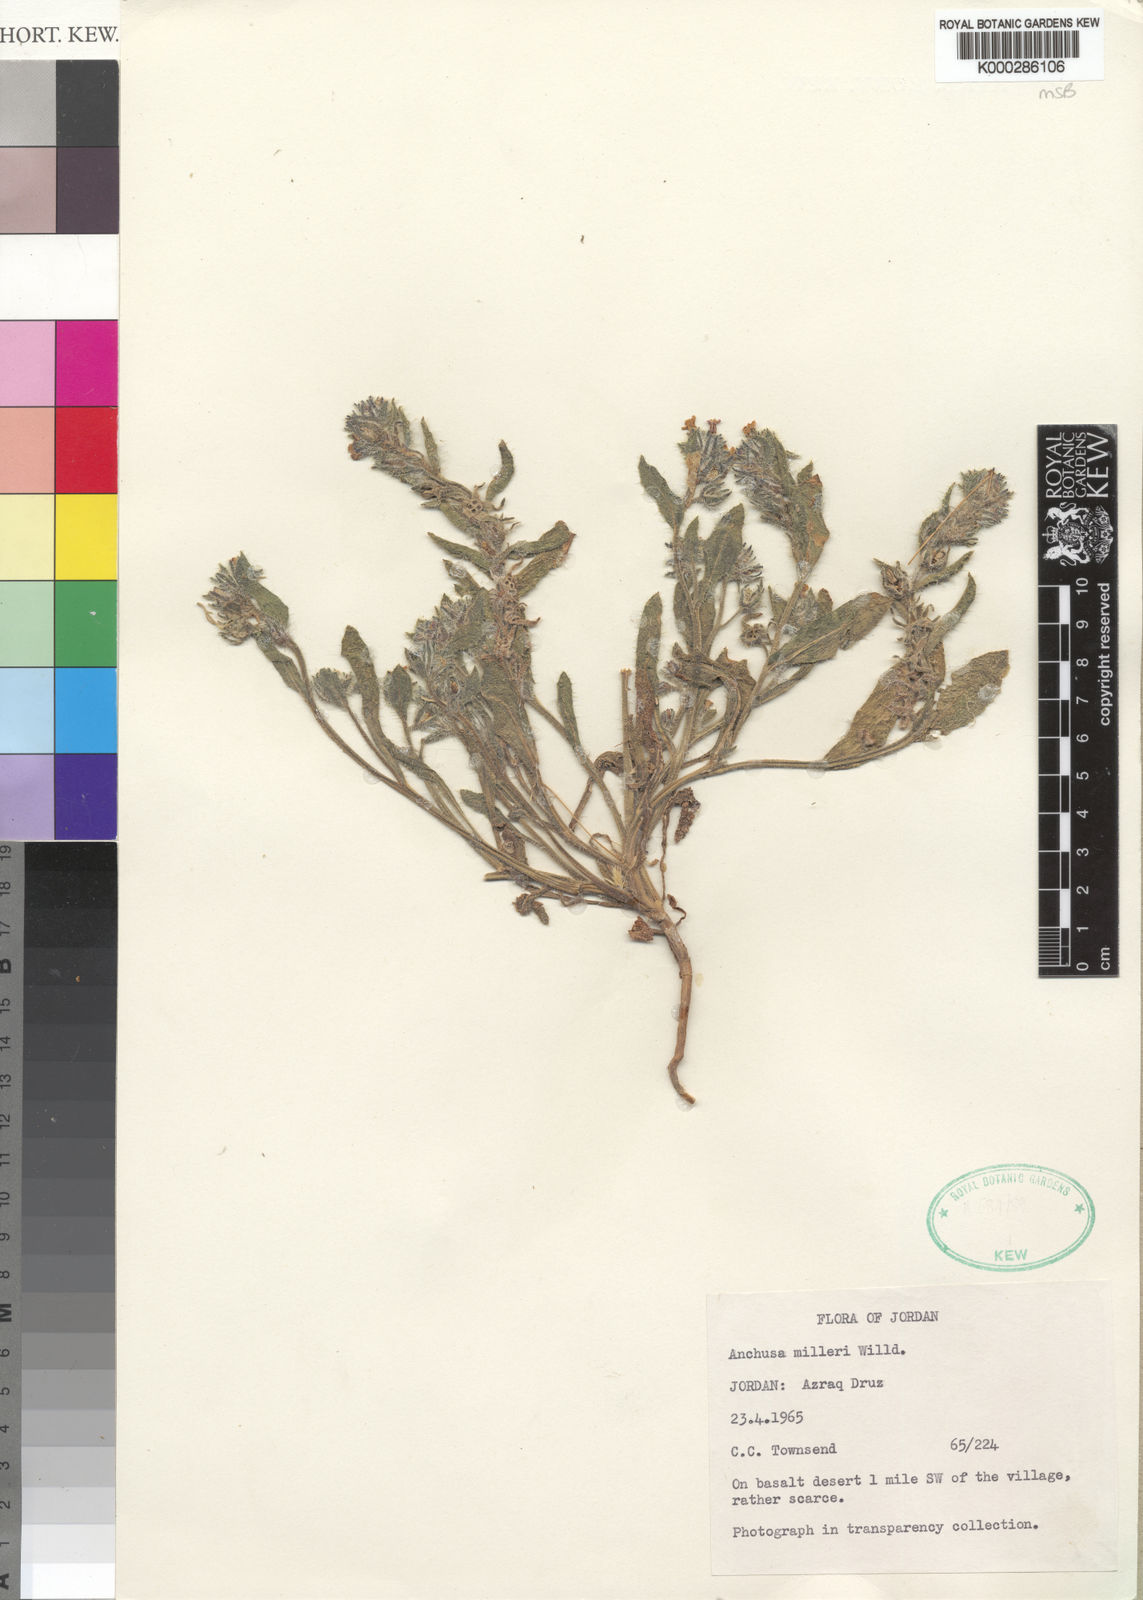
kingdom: Plantae
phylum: Tracheophyta
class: Magnoliopsida
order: Boraginales
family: Boraginaceae
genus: Anchusa
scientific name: Anchusa
